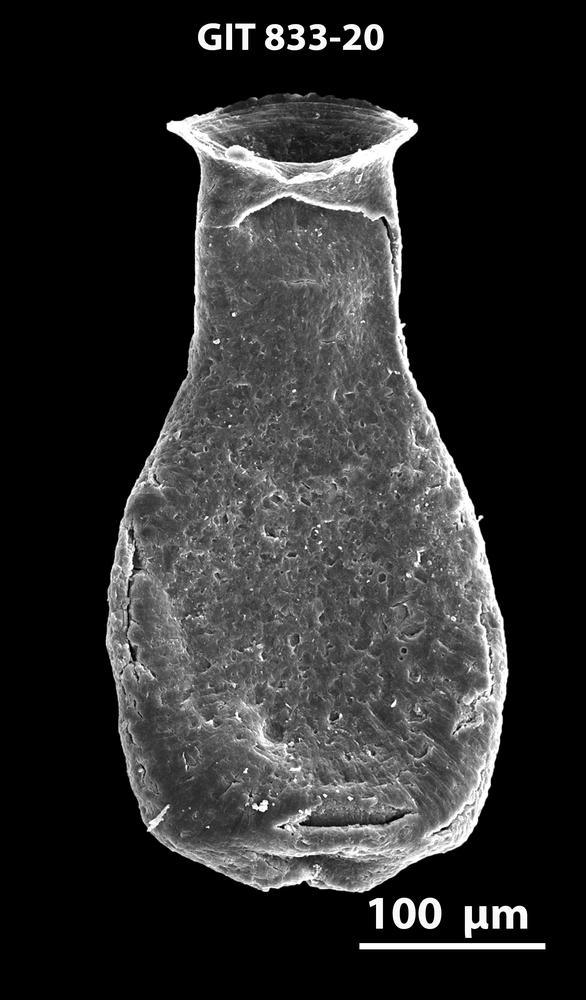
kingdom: Animalia
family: Lagenochitinidae
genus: Lagenochitina
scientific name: Lagenochitina
